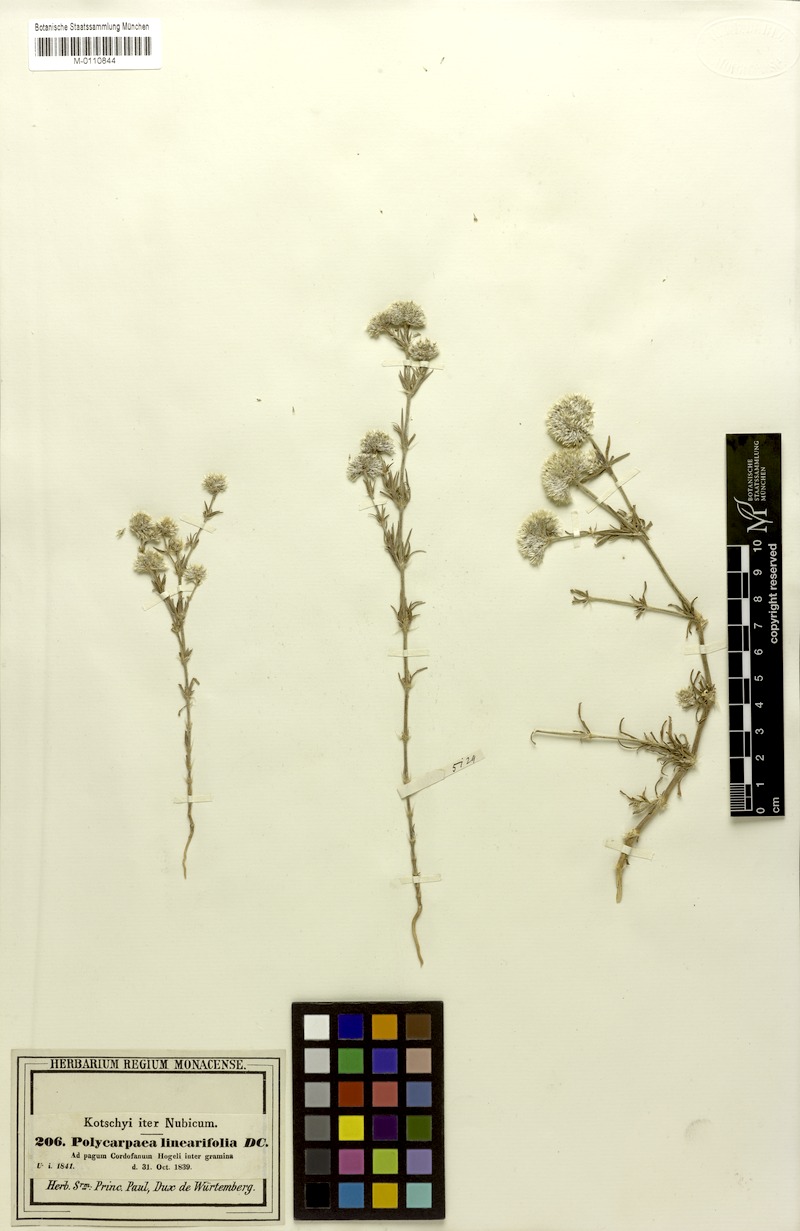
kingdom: Plantae
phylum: Tracheophyta
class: Magnoliopsida
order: Caryophyllales
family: Caryophyllaceae
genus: Polycarpaea
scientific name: Polycarpaea linearifolia
